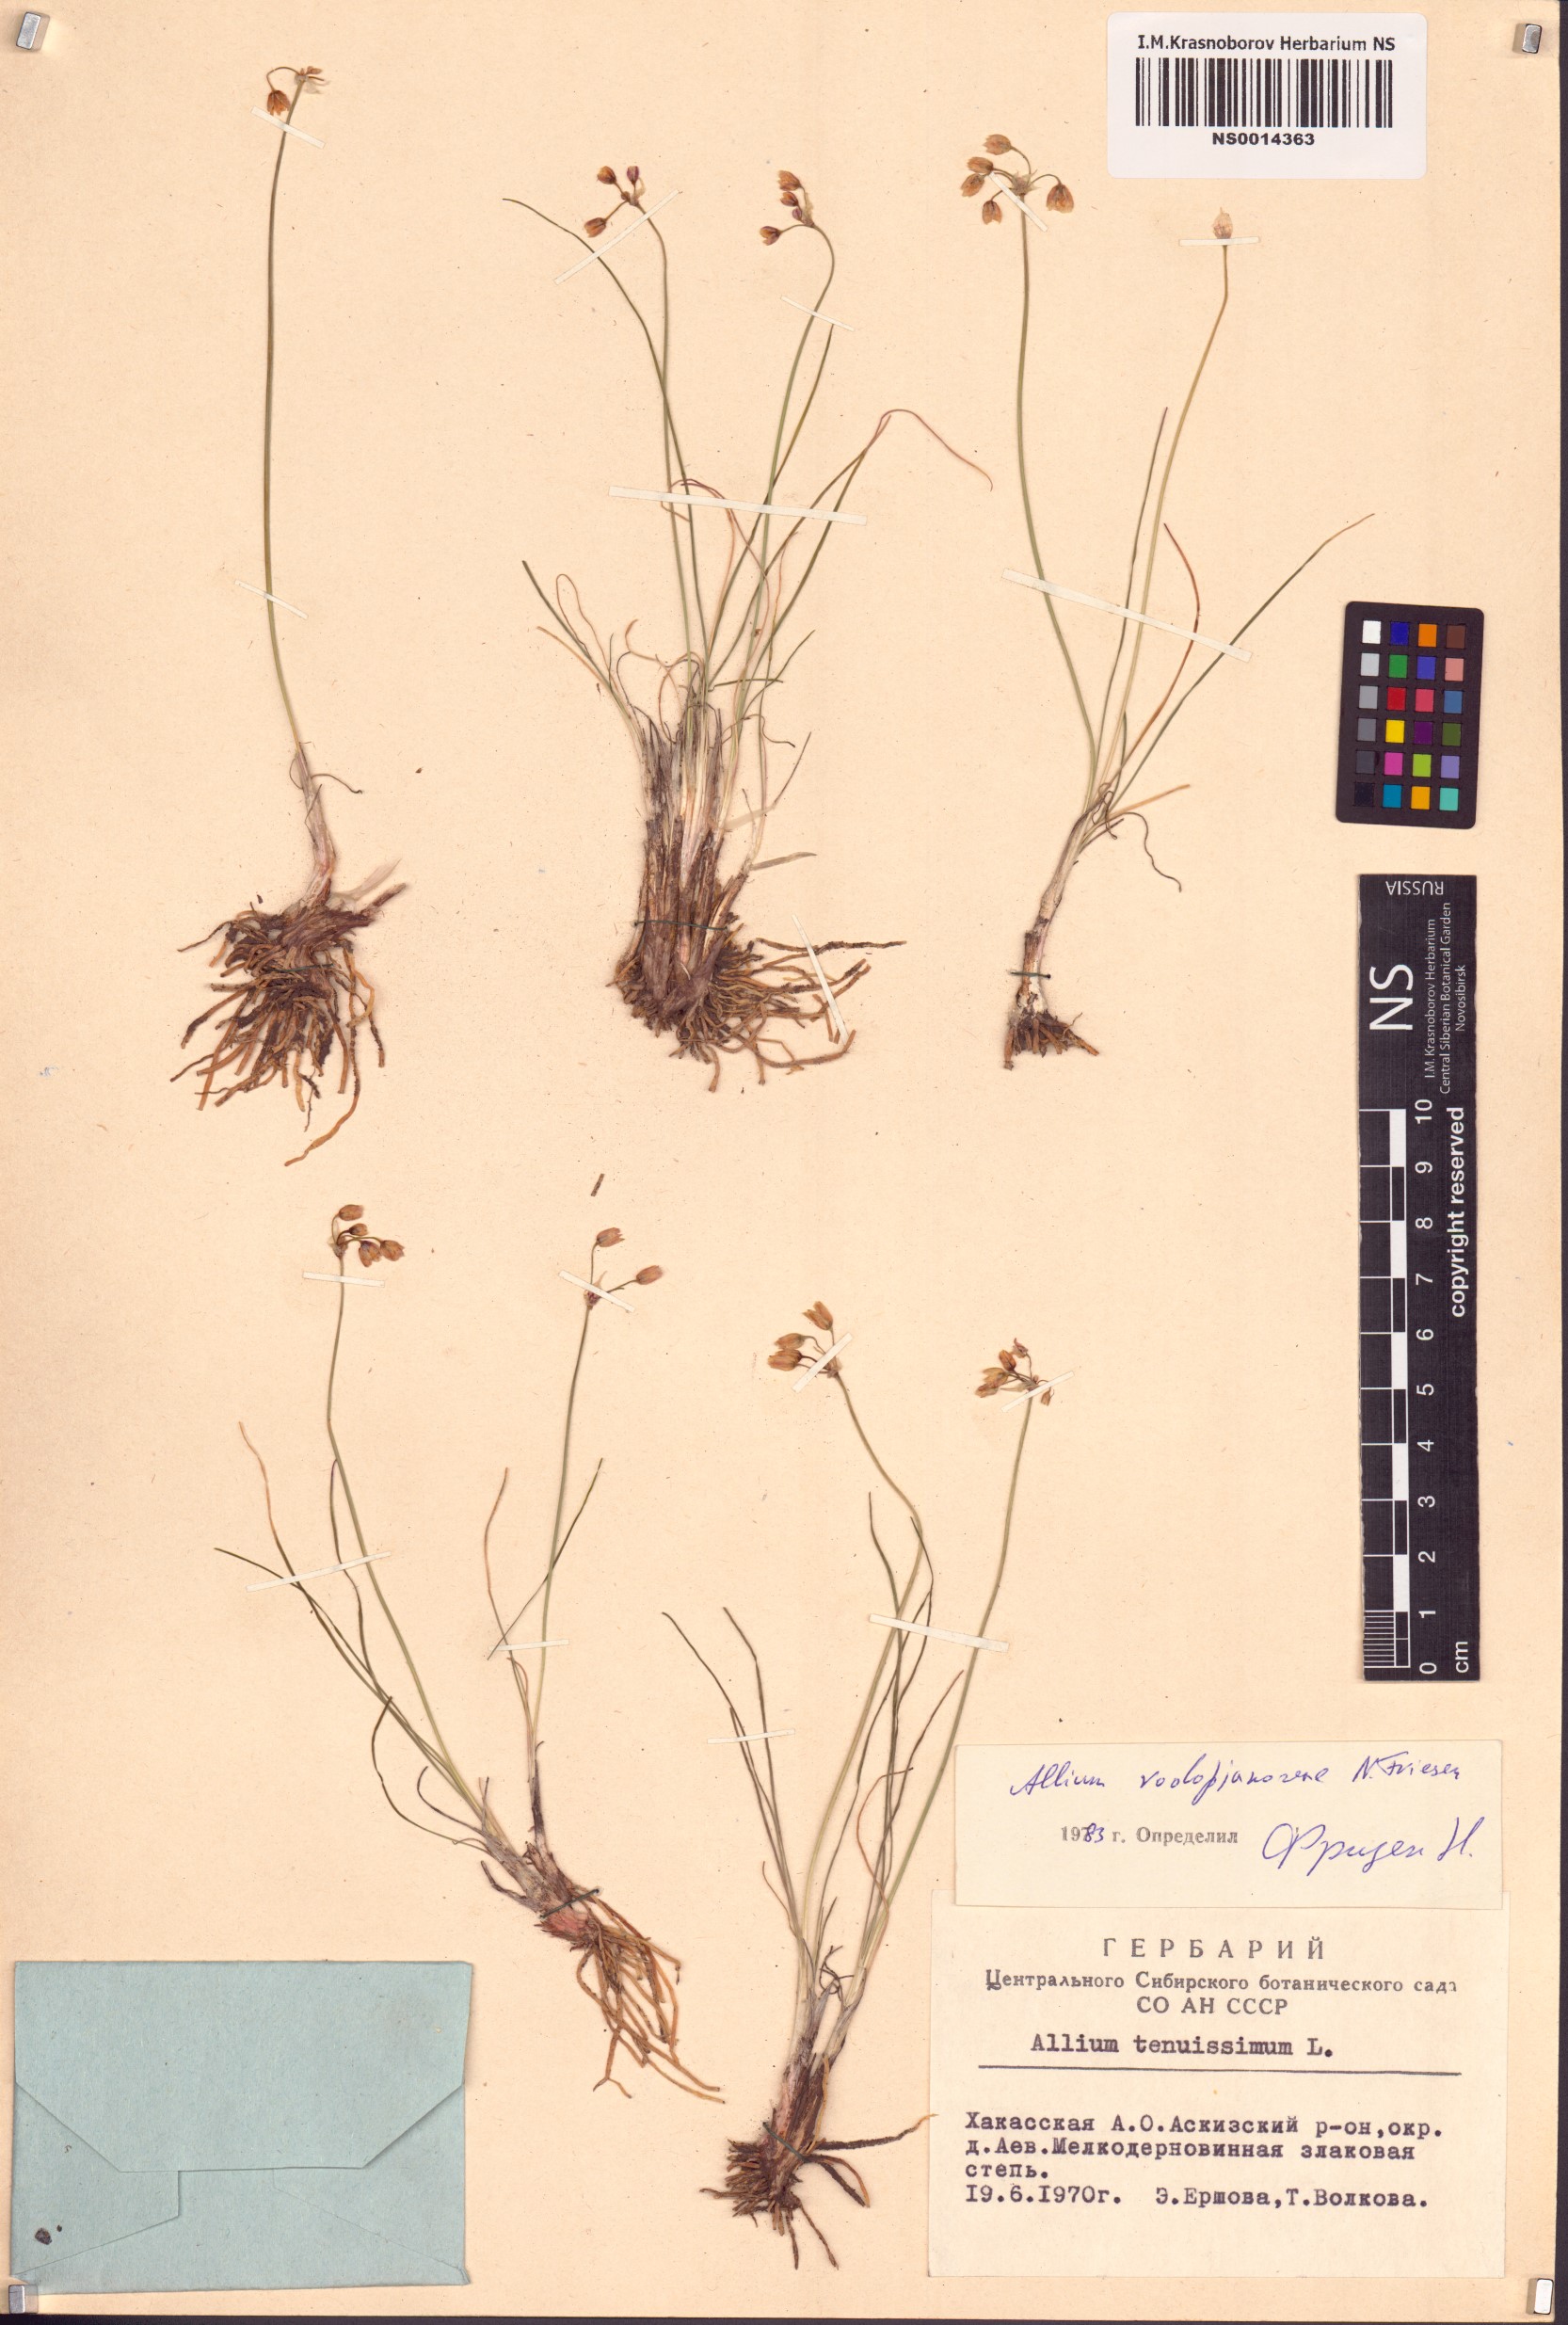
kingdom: Plantae
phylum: Tracheophyta
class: Liliopsida
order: Asparagales
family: Amaryllidaceae
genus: Allium
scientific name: Allium vodopjanovae
